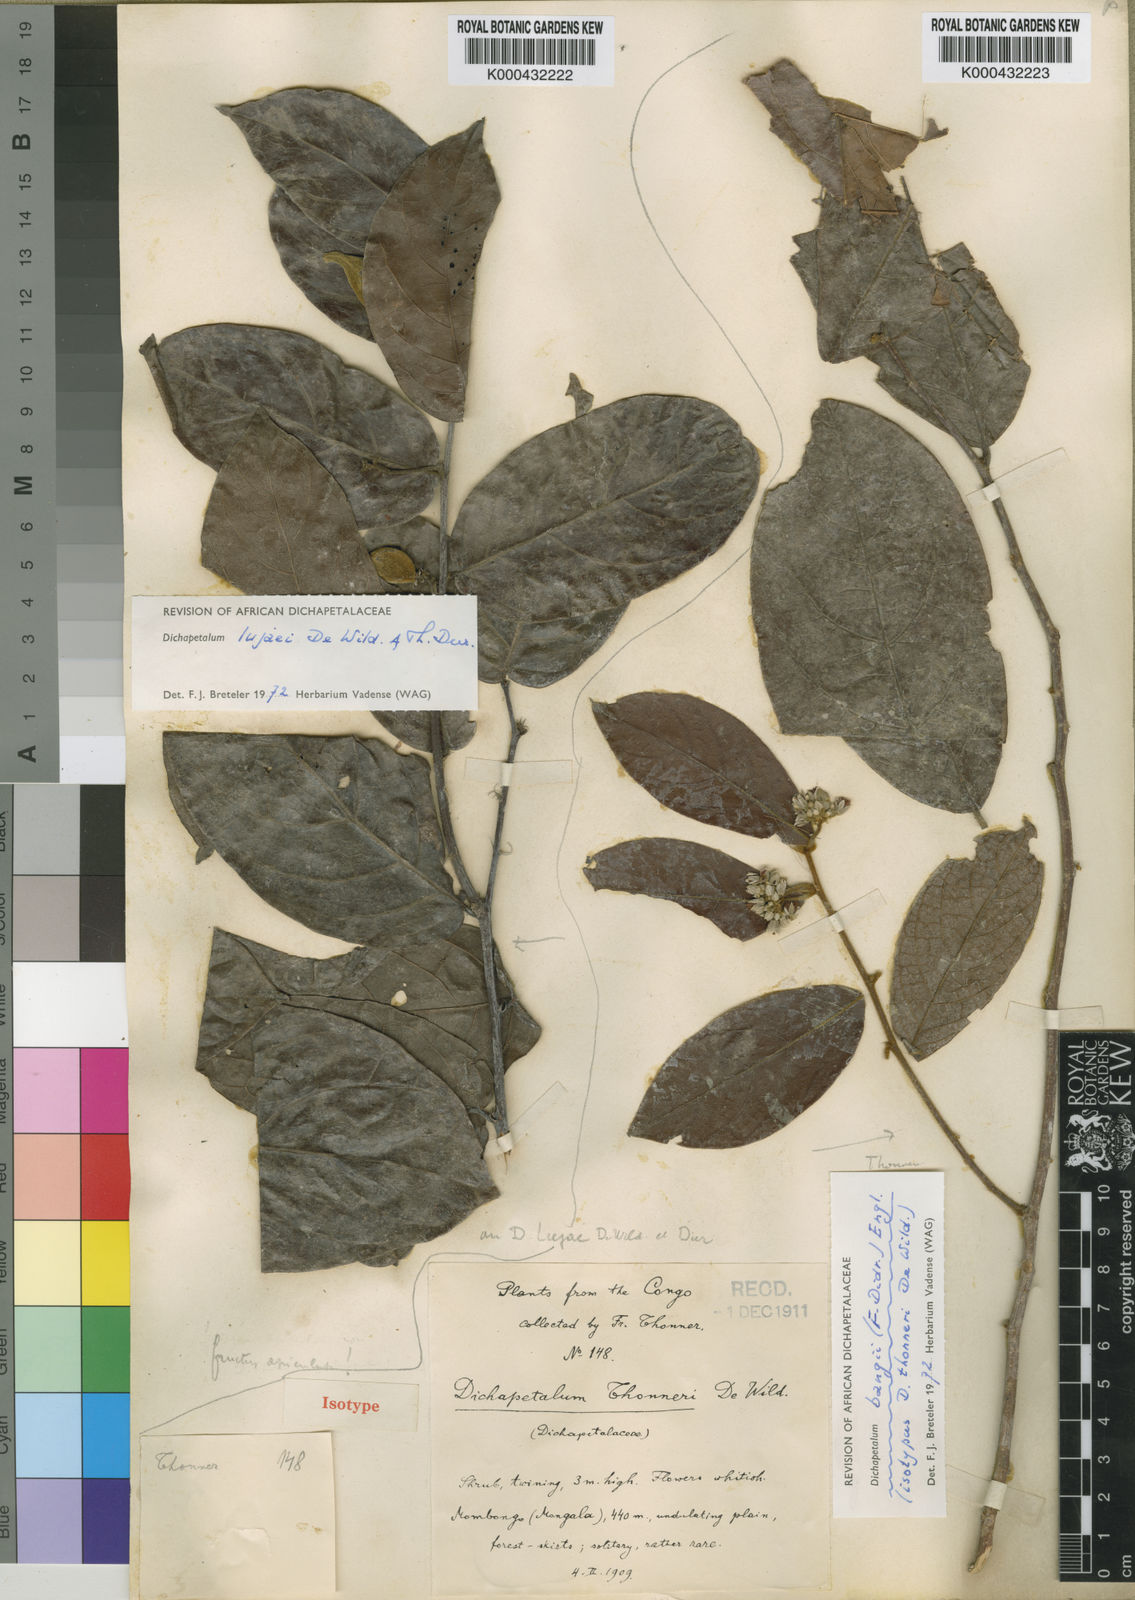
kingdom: Plantae
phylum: Tracheophyta
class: Magnoliopsida
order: Malpighiales
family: Dichapetalaceae
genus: Dichapetalum
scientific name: Dichapetalum bangii
